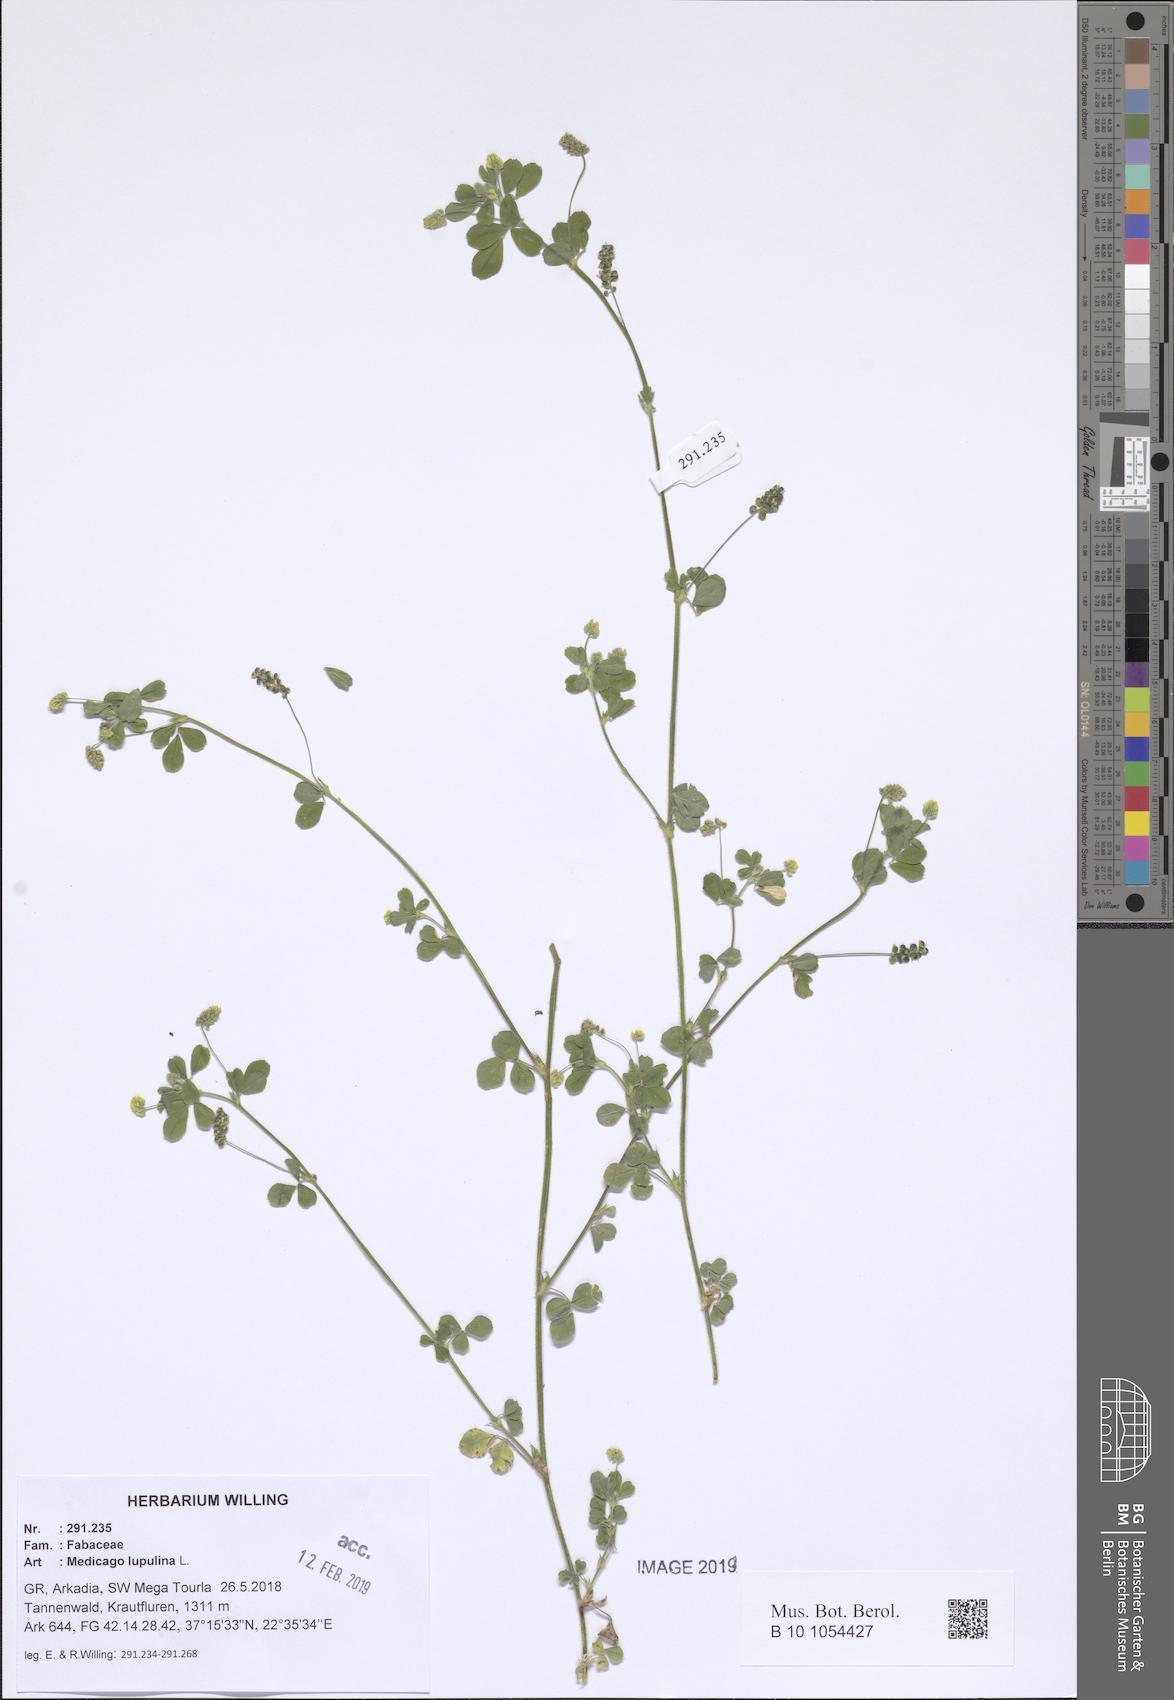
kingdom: Plantae
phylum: Tracheophyta
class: Magnoliopsida
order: Fabales
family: Fabaceae
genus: Medicago
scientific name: Medicago lupulina
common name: Black medick
